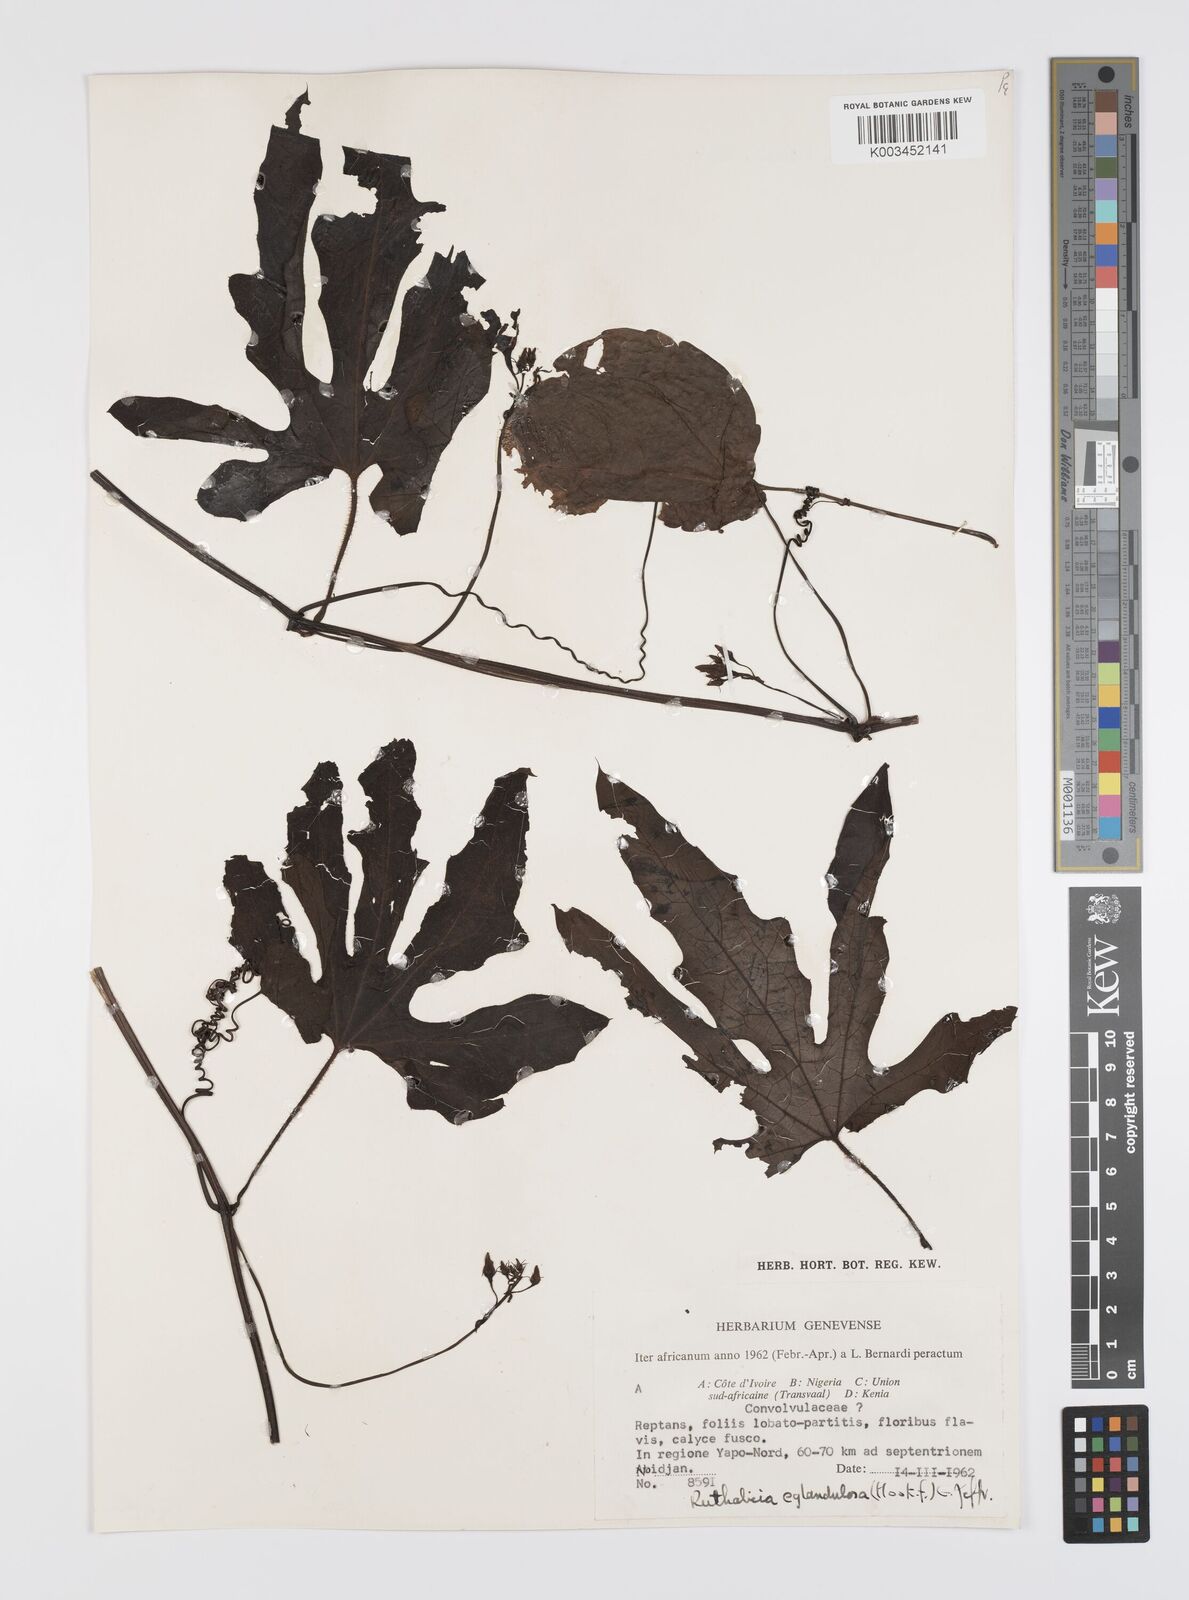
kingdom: Plantae
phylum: Tracheophyta
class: Magnoliopsida
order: Cucurbitales
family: Cucurbitaceae
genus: Ruthalicia
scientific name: Ruthalicia eglandulosa
